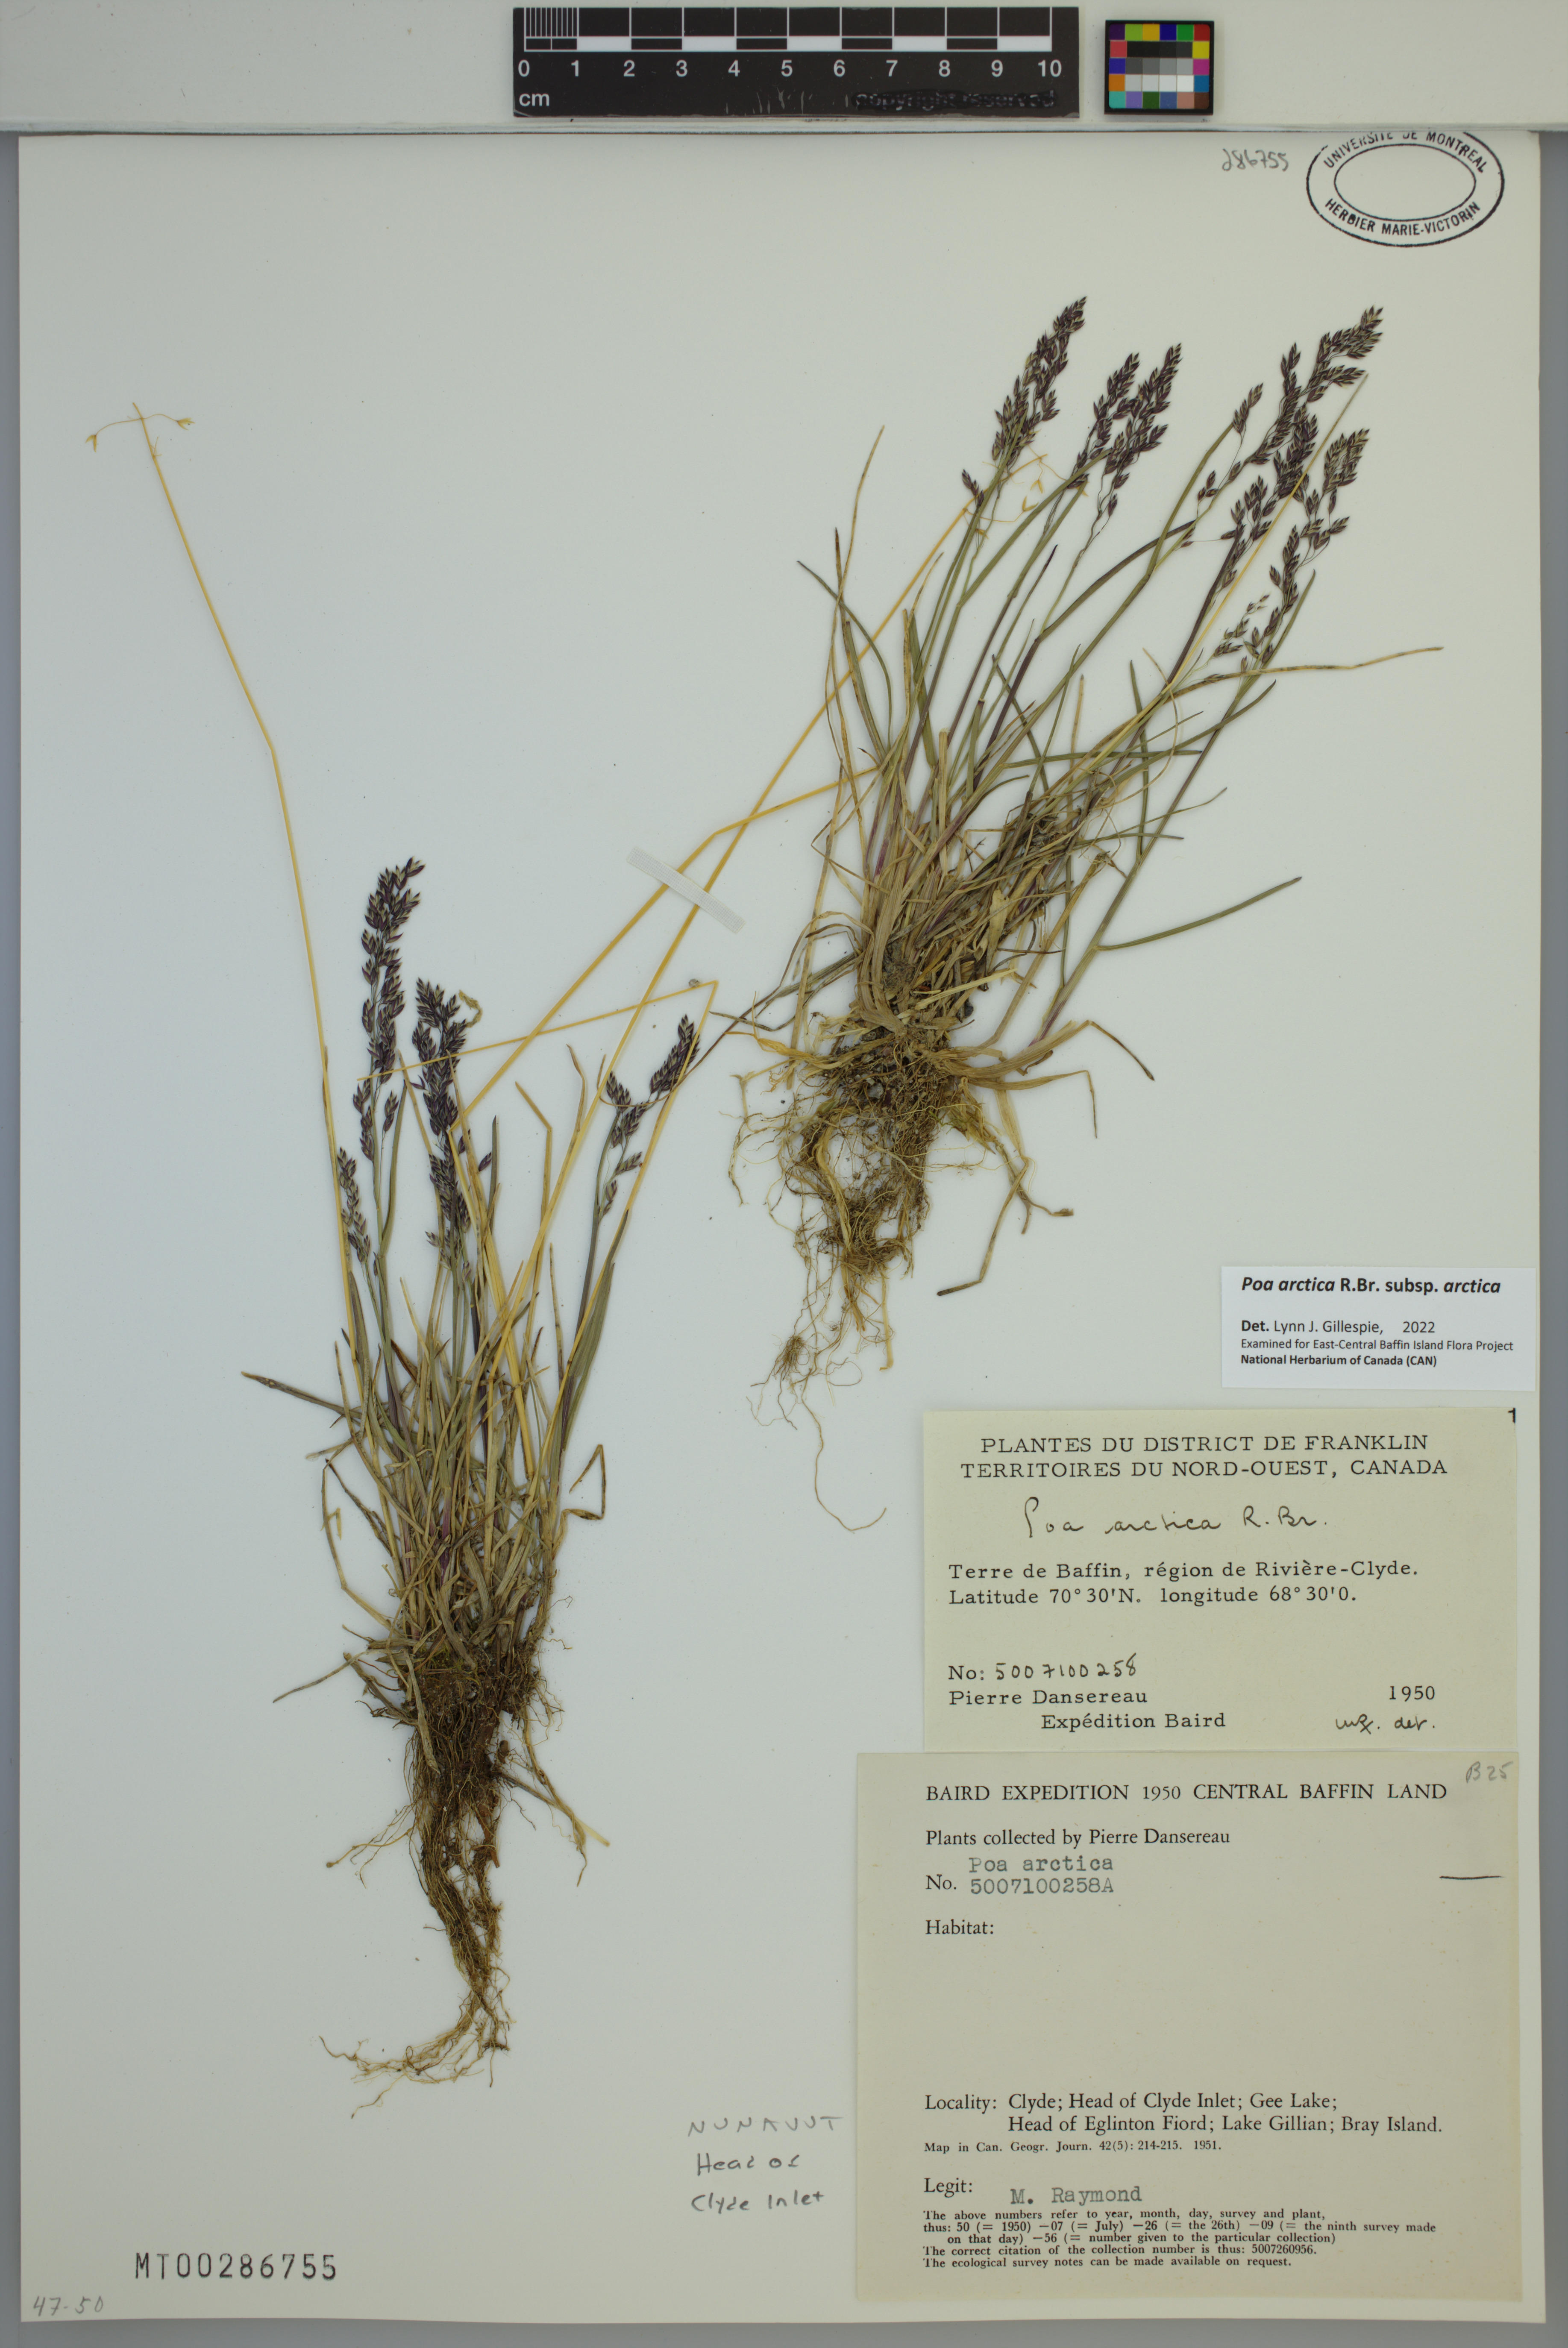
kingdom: Plantae
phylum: Tracheophyta
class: Liliopsida
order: Poales
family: Poaceae
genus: Poa
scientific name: Poa arctica
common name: Arctic bluegrass
